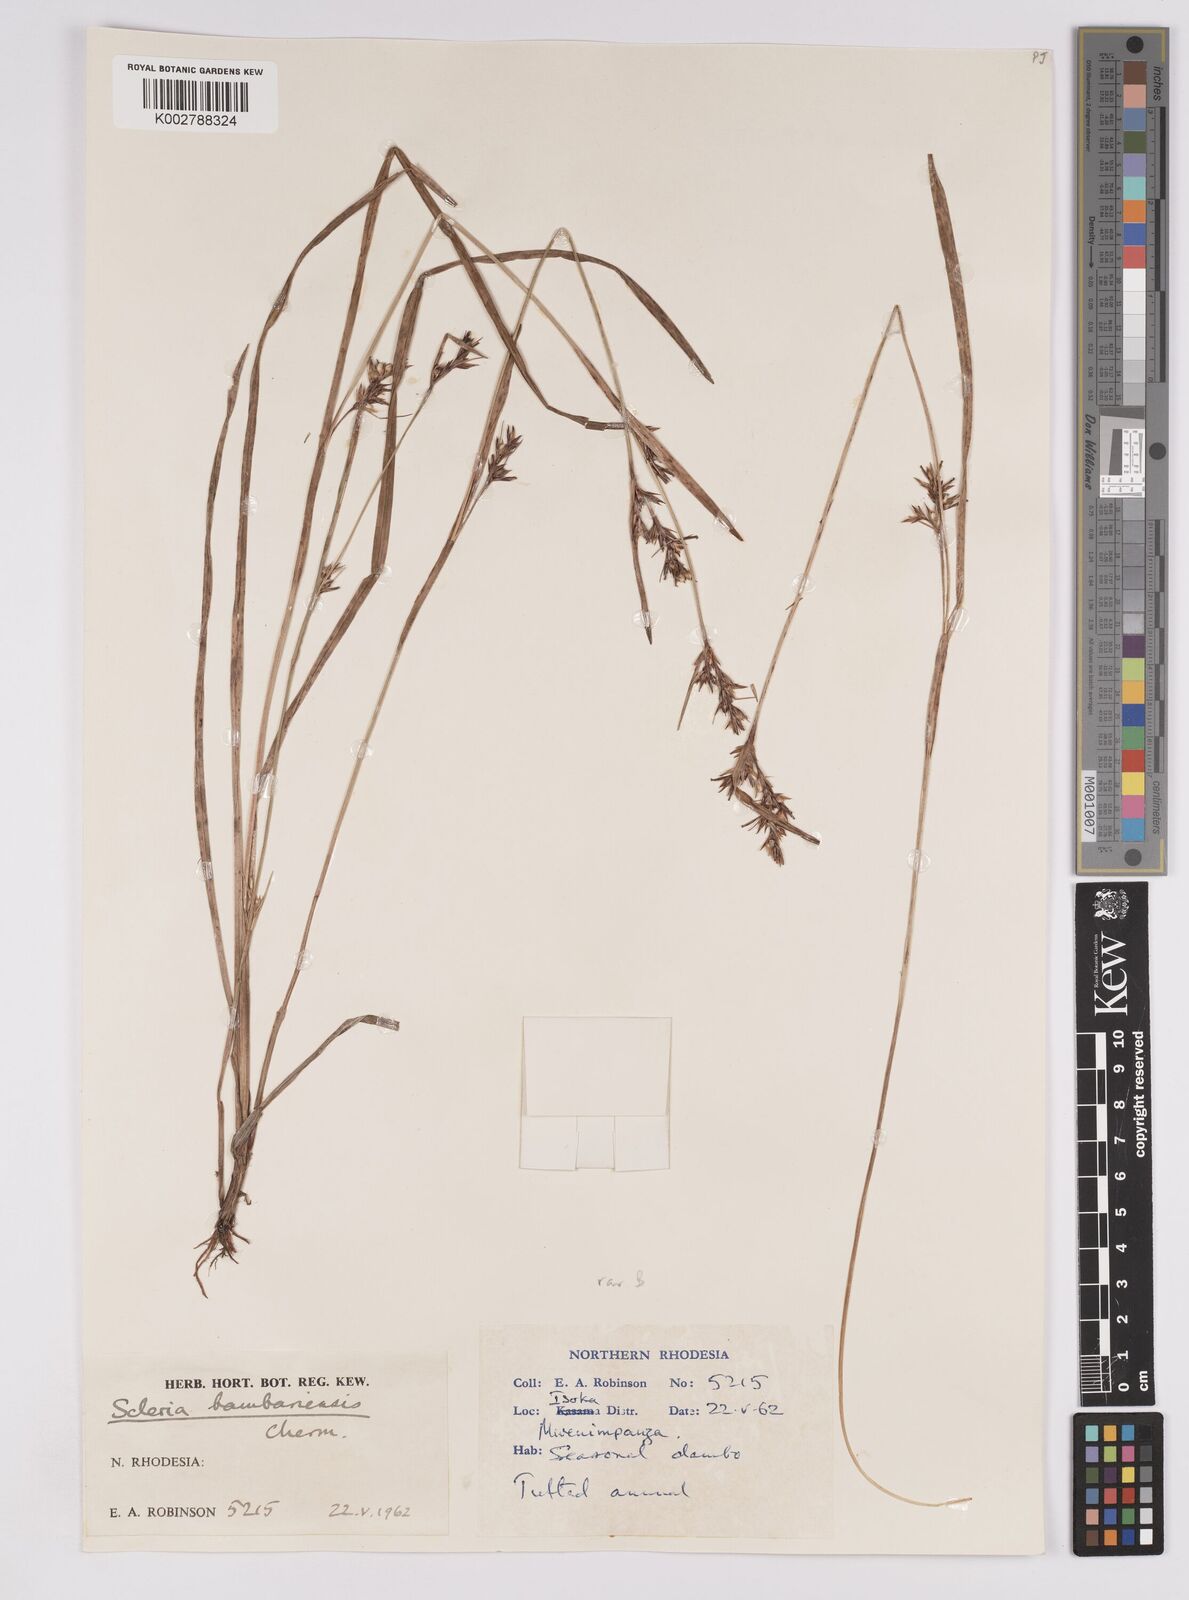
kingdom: Plantae
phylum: Tracheophyta
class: Liliopsida
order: Poales
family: Cyperaceae
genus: Scleria
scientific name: Scleria bambariensis
